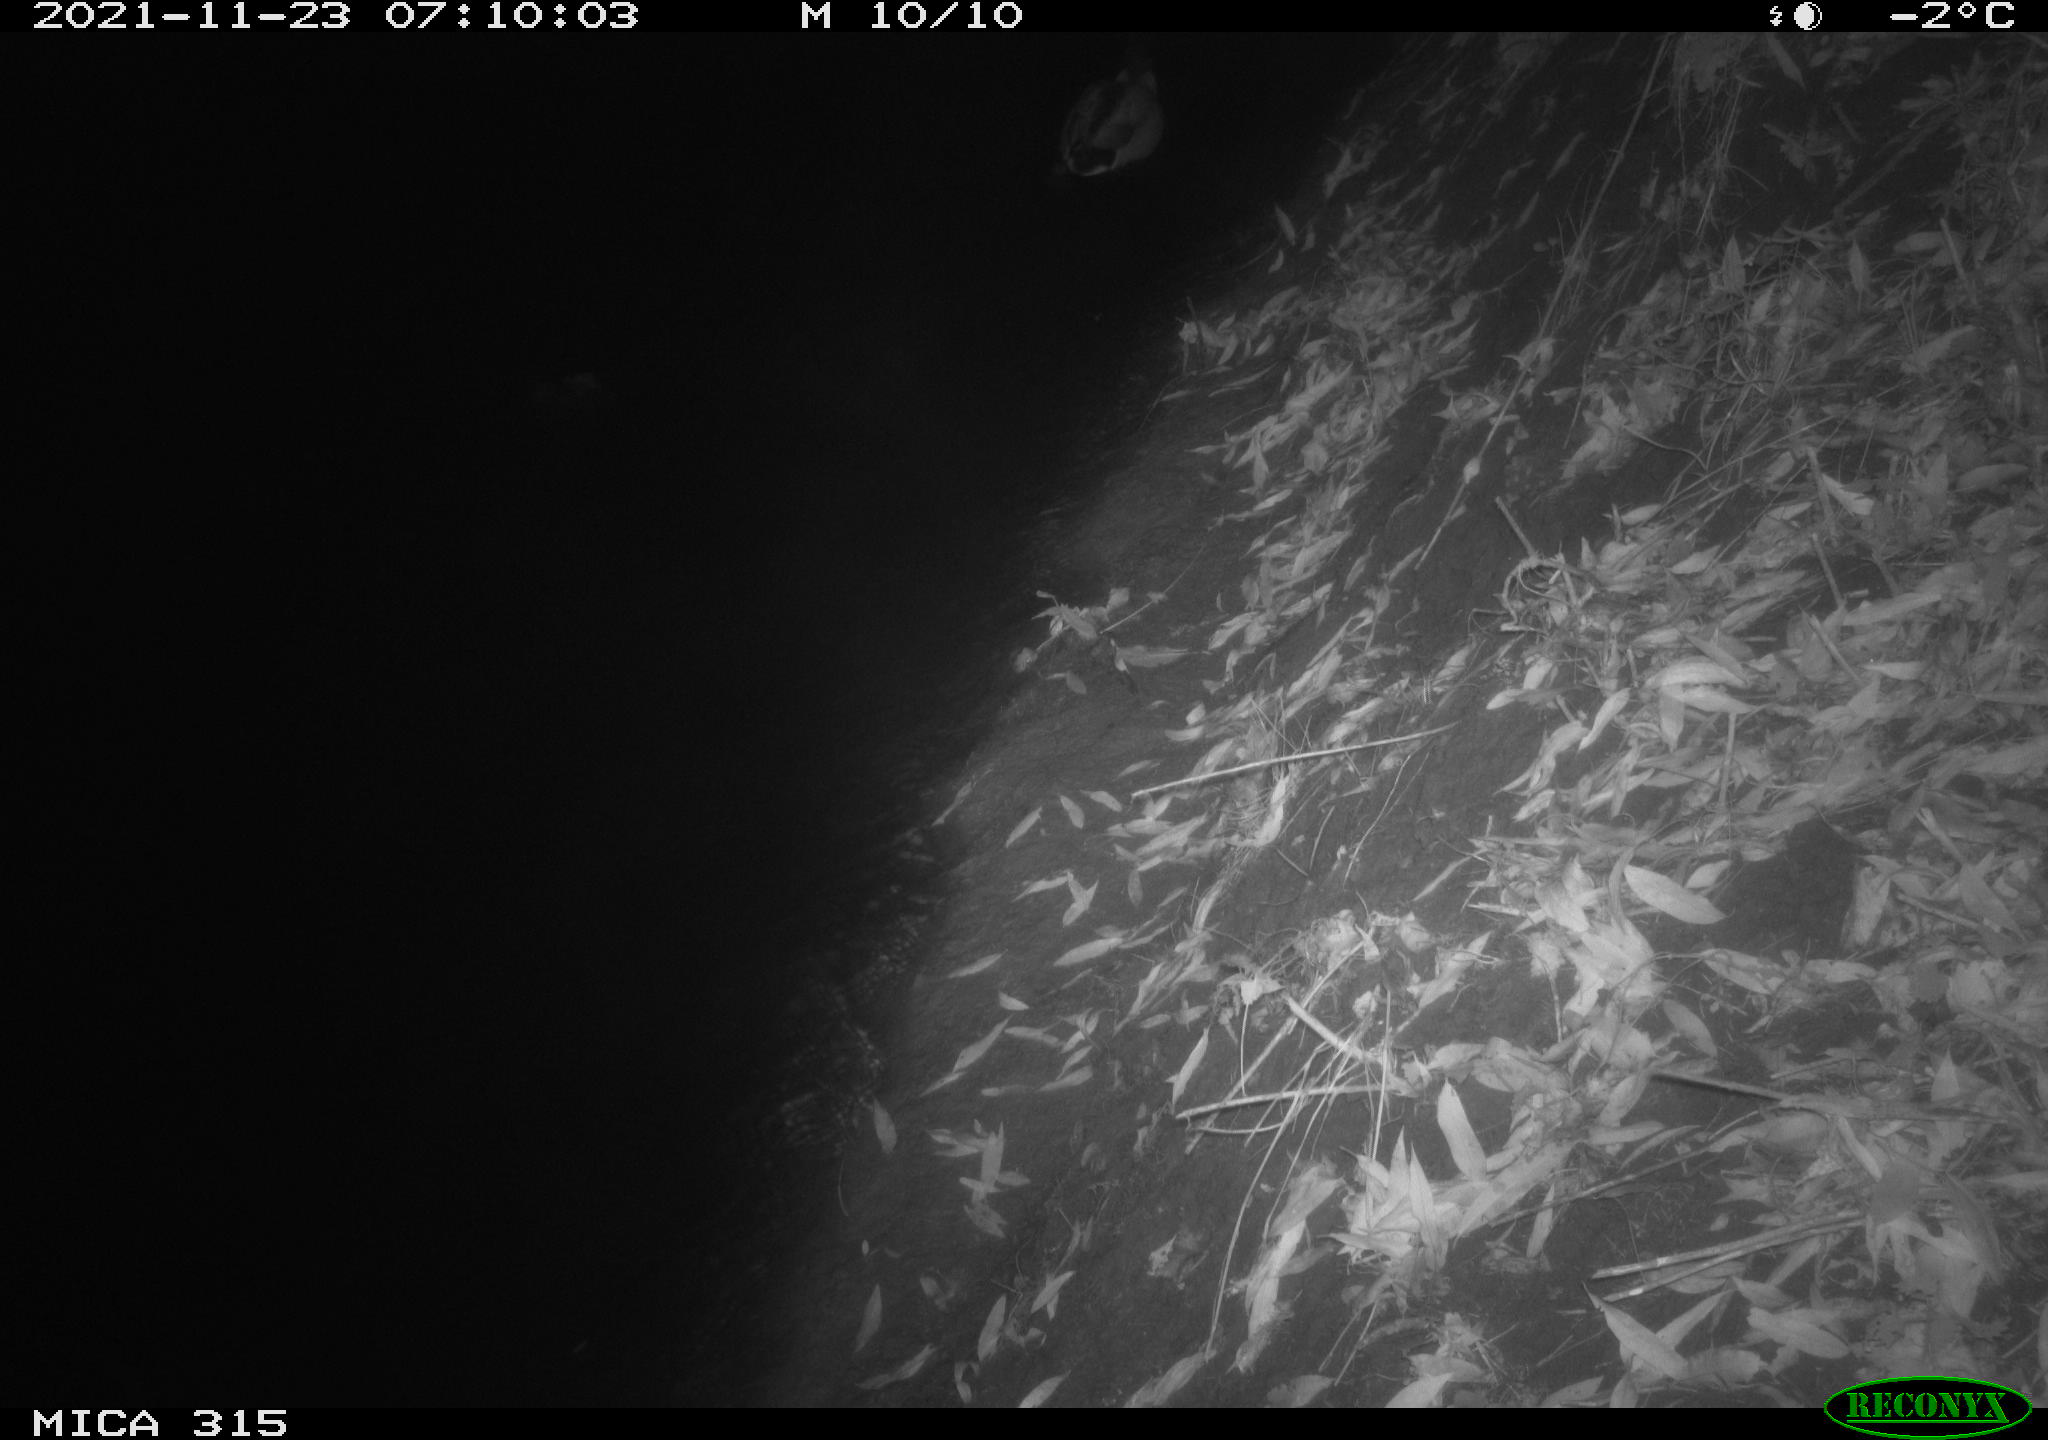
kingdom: Animalia
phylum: Chordata
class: Aves
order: Anseriformes
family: Anatidae
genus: Anas
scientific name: Anas platyrhynchos
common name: Mallard
